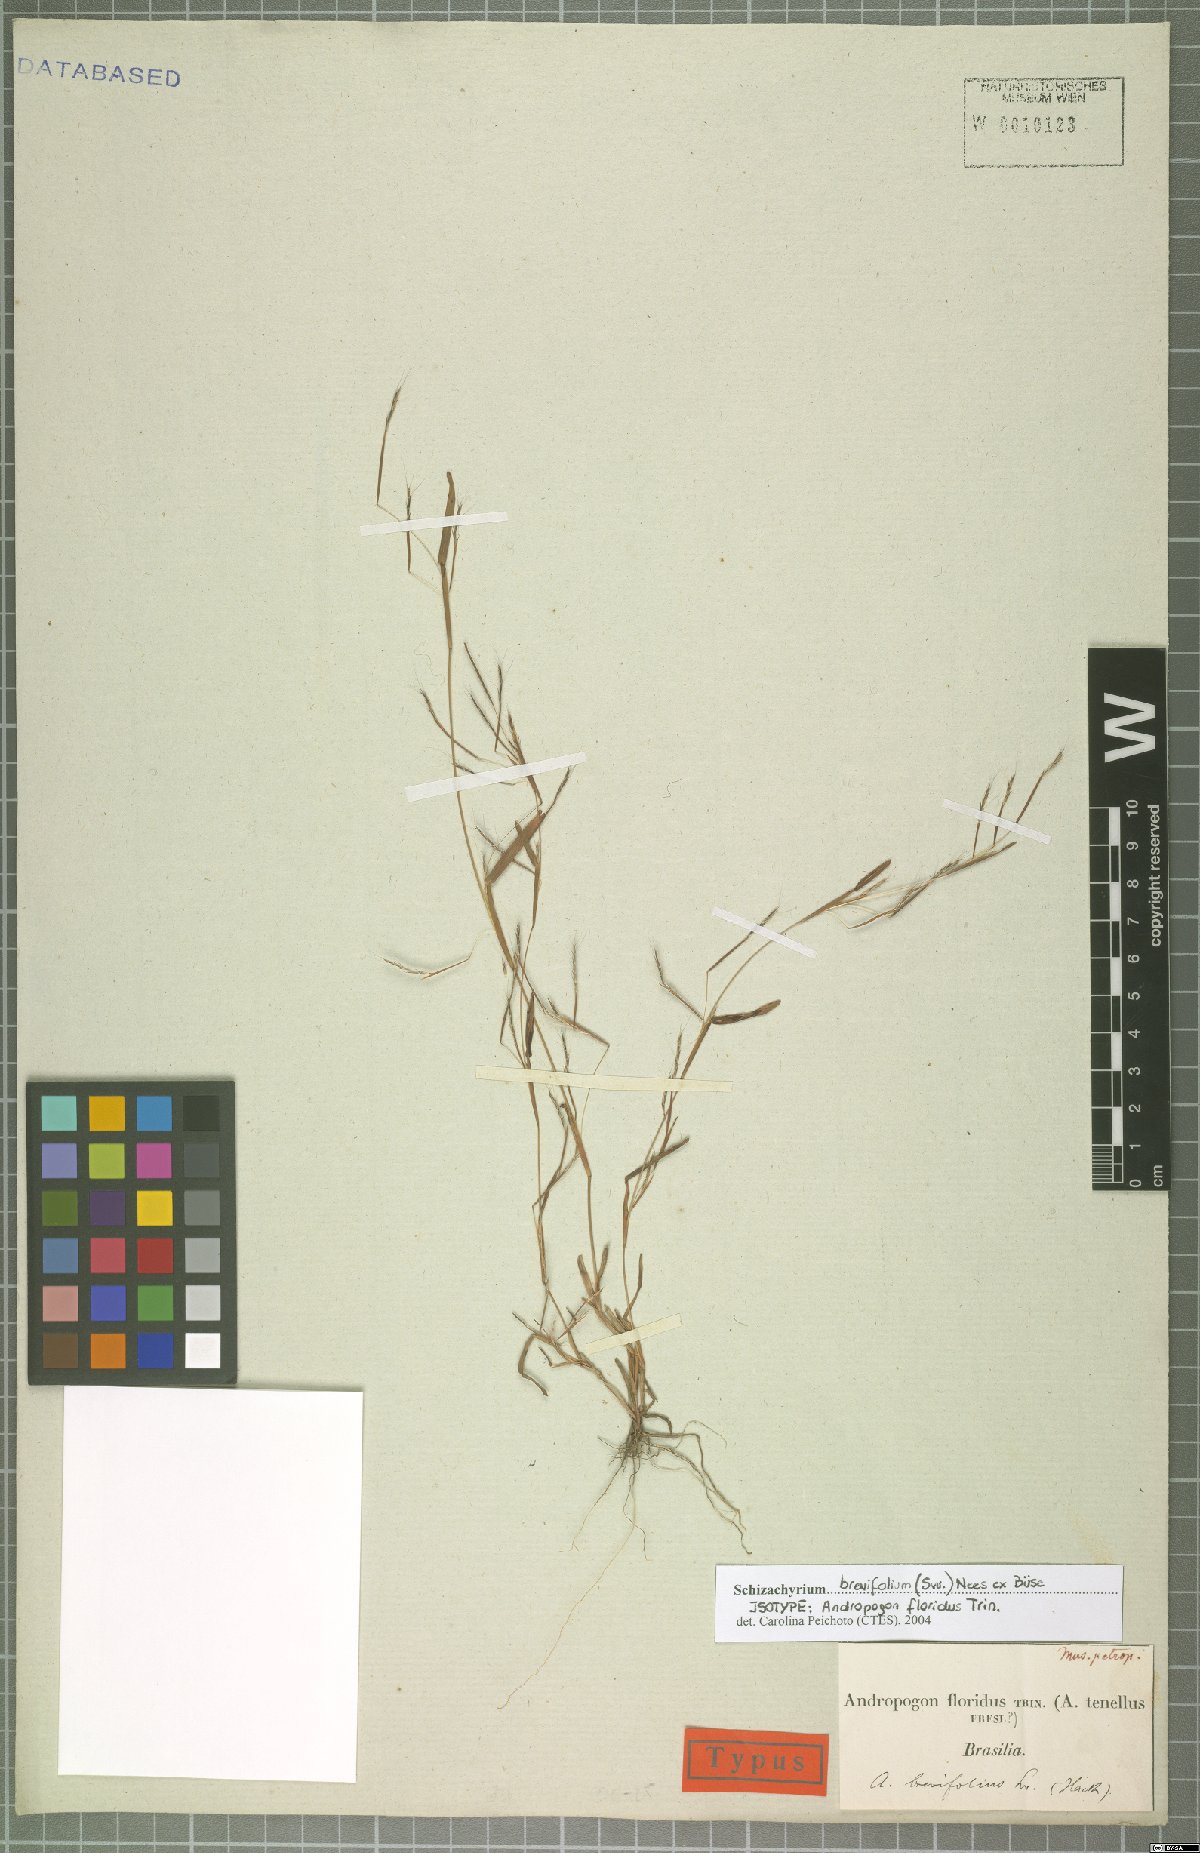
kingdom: Plantae
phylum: Tracheophyta
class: Liliopsida
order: Poales
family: Poaceae
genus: Schizachyrium
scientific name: Schizachyrium brevifolium
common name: Serillo dulce
